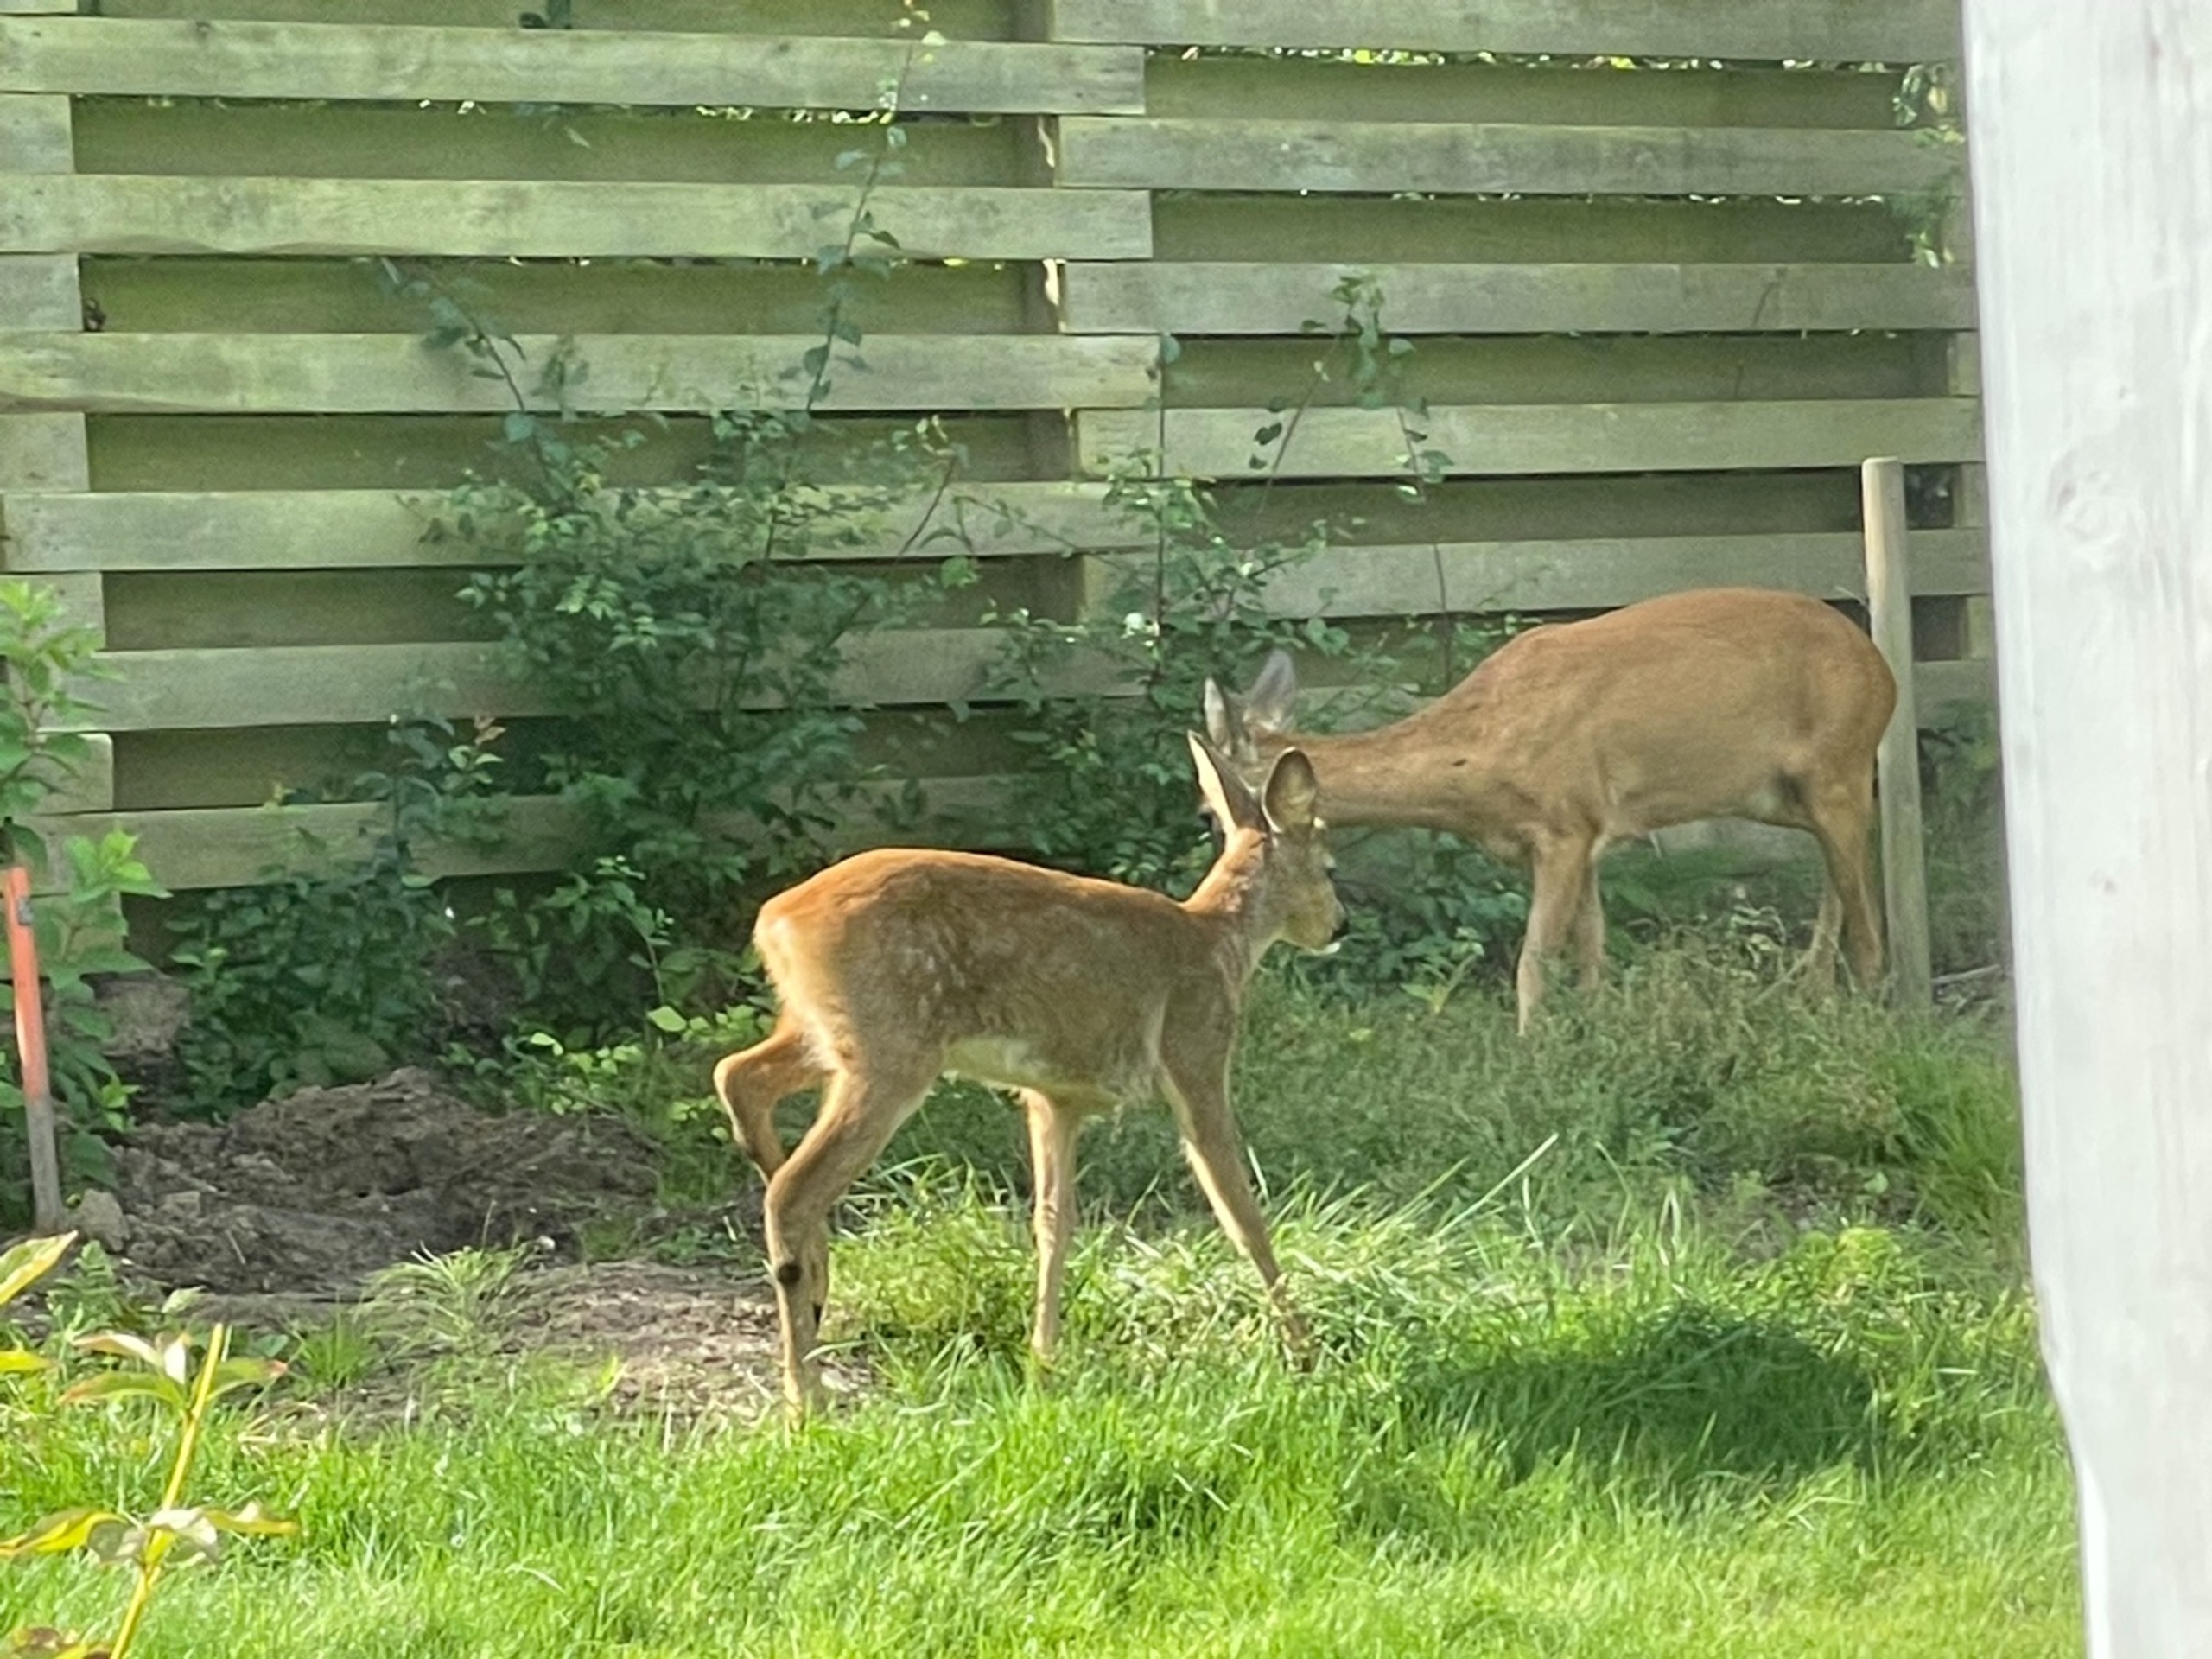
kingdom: Animalia
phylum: Chordata
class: Mammalia
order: Artiodactyla
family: Cervidae
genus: Capreolus
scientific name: Capreolus capreolus
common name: Rådyr
